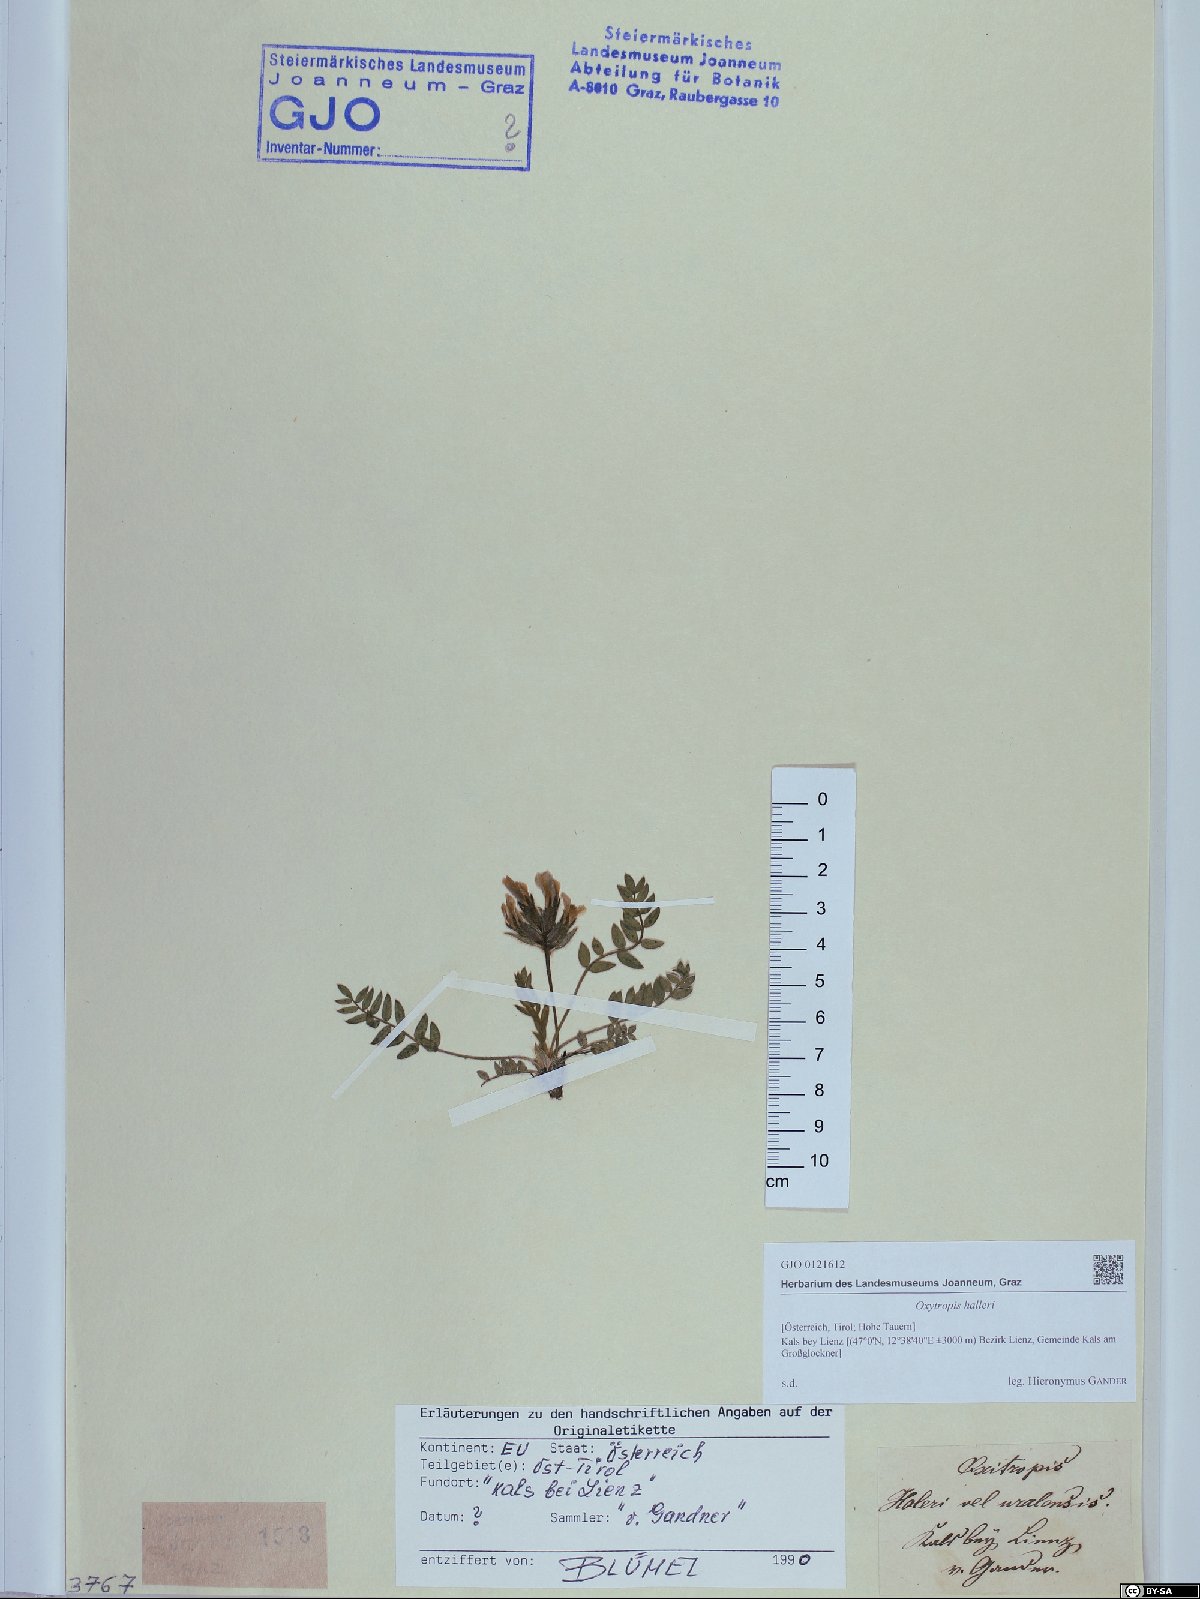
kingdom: Plantae
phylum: Tracheophyta
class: Magnoliopsida
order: Fabales
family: Fabaceae
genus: Oxytropis
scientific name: Oxytropis halleri
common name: Purple oxytropis
